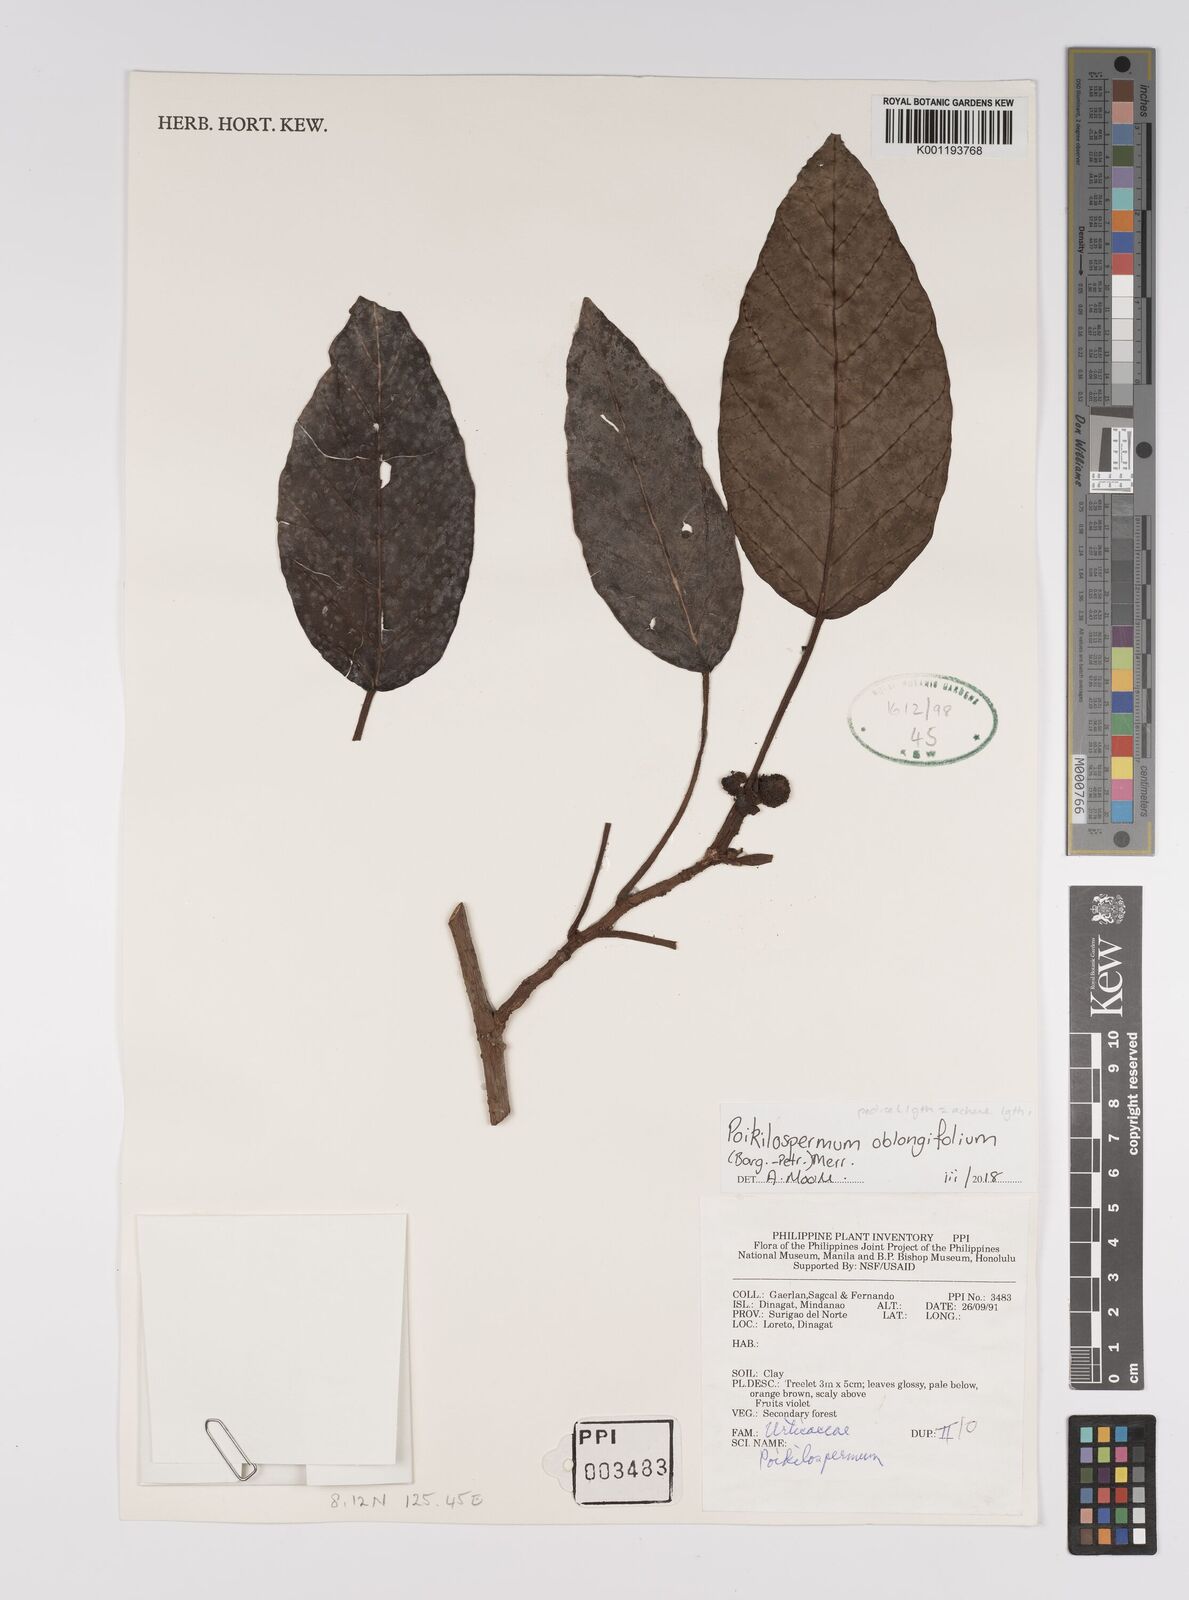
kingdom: Plantae
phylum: Tracheophyta
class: Magnoliopsida
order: Rosales
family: Urticaceae
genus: Poikilospermum
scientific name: Poikilospermum oblongifolium
